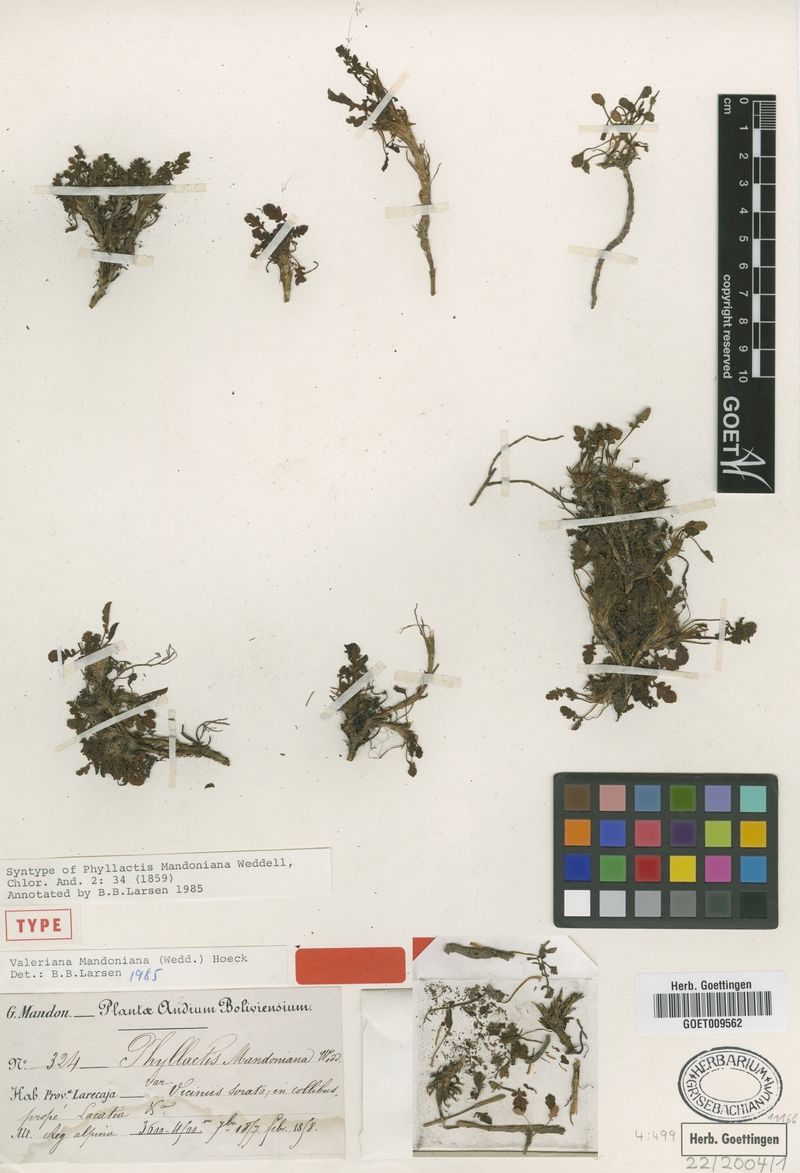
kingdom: Plantae
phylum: Tracheophyta
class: Magnoliopsida
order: Dipsacales
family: Caprifoliaceae
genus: Valeriana
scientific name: Valeriana mandoniana
